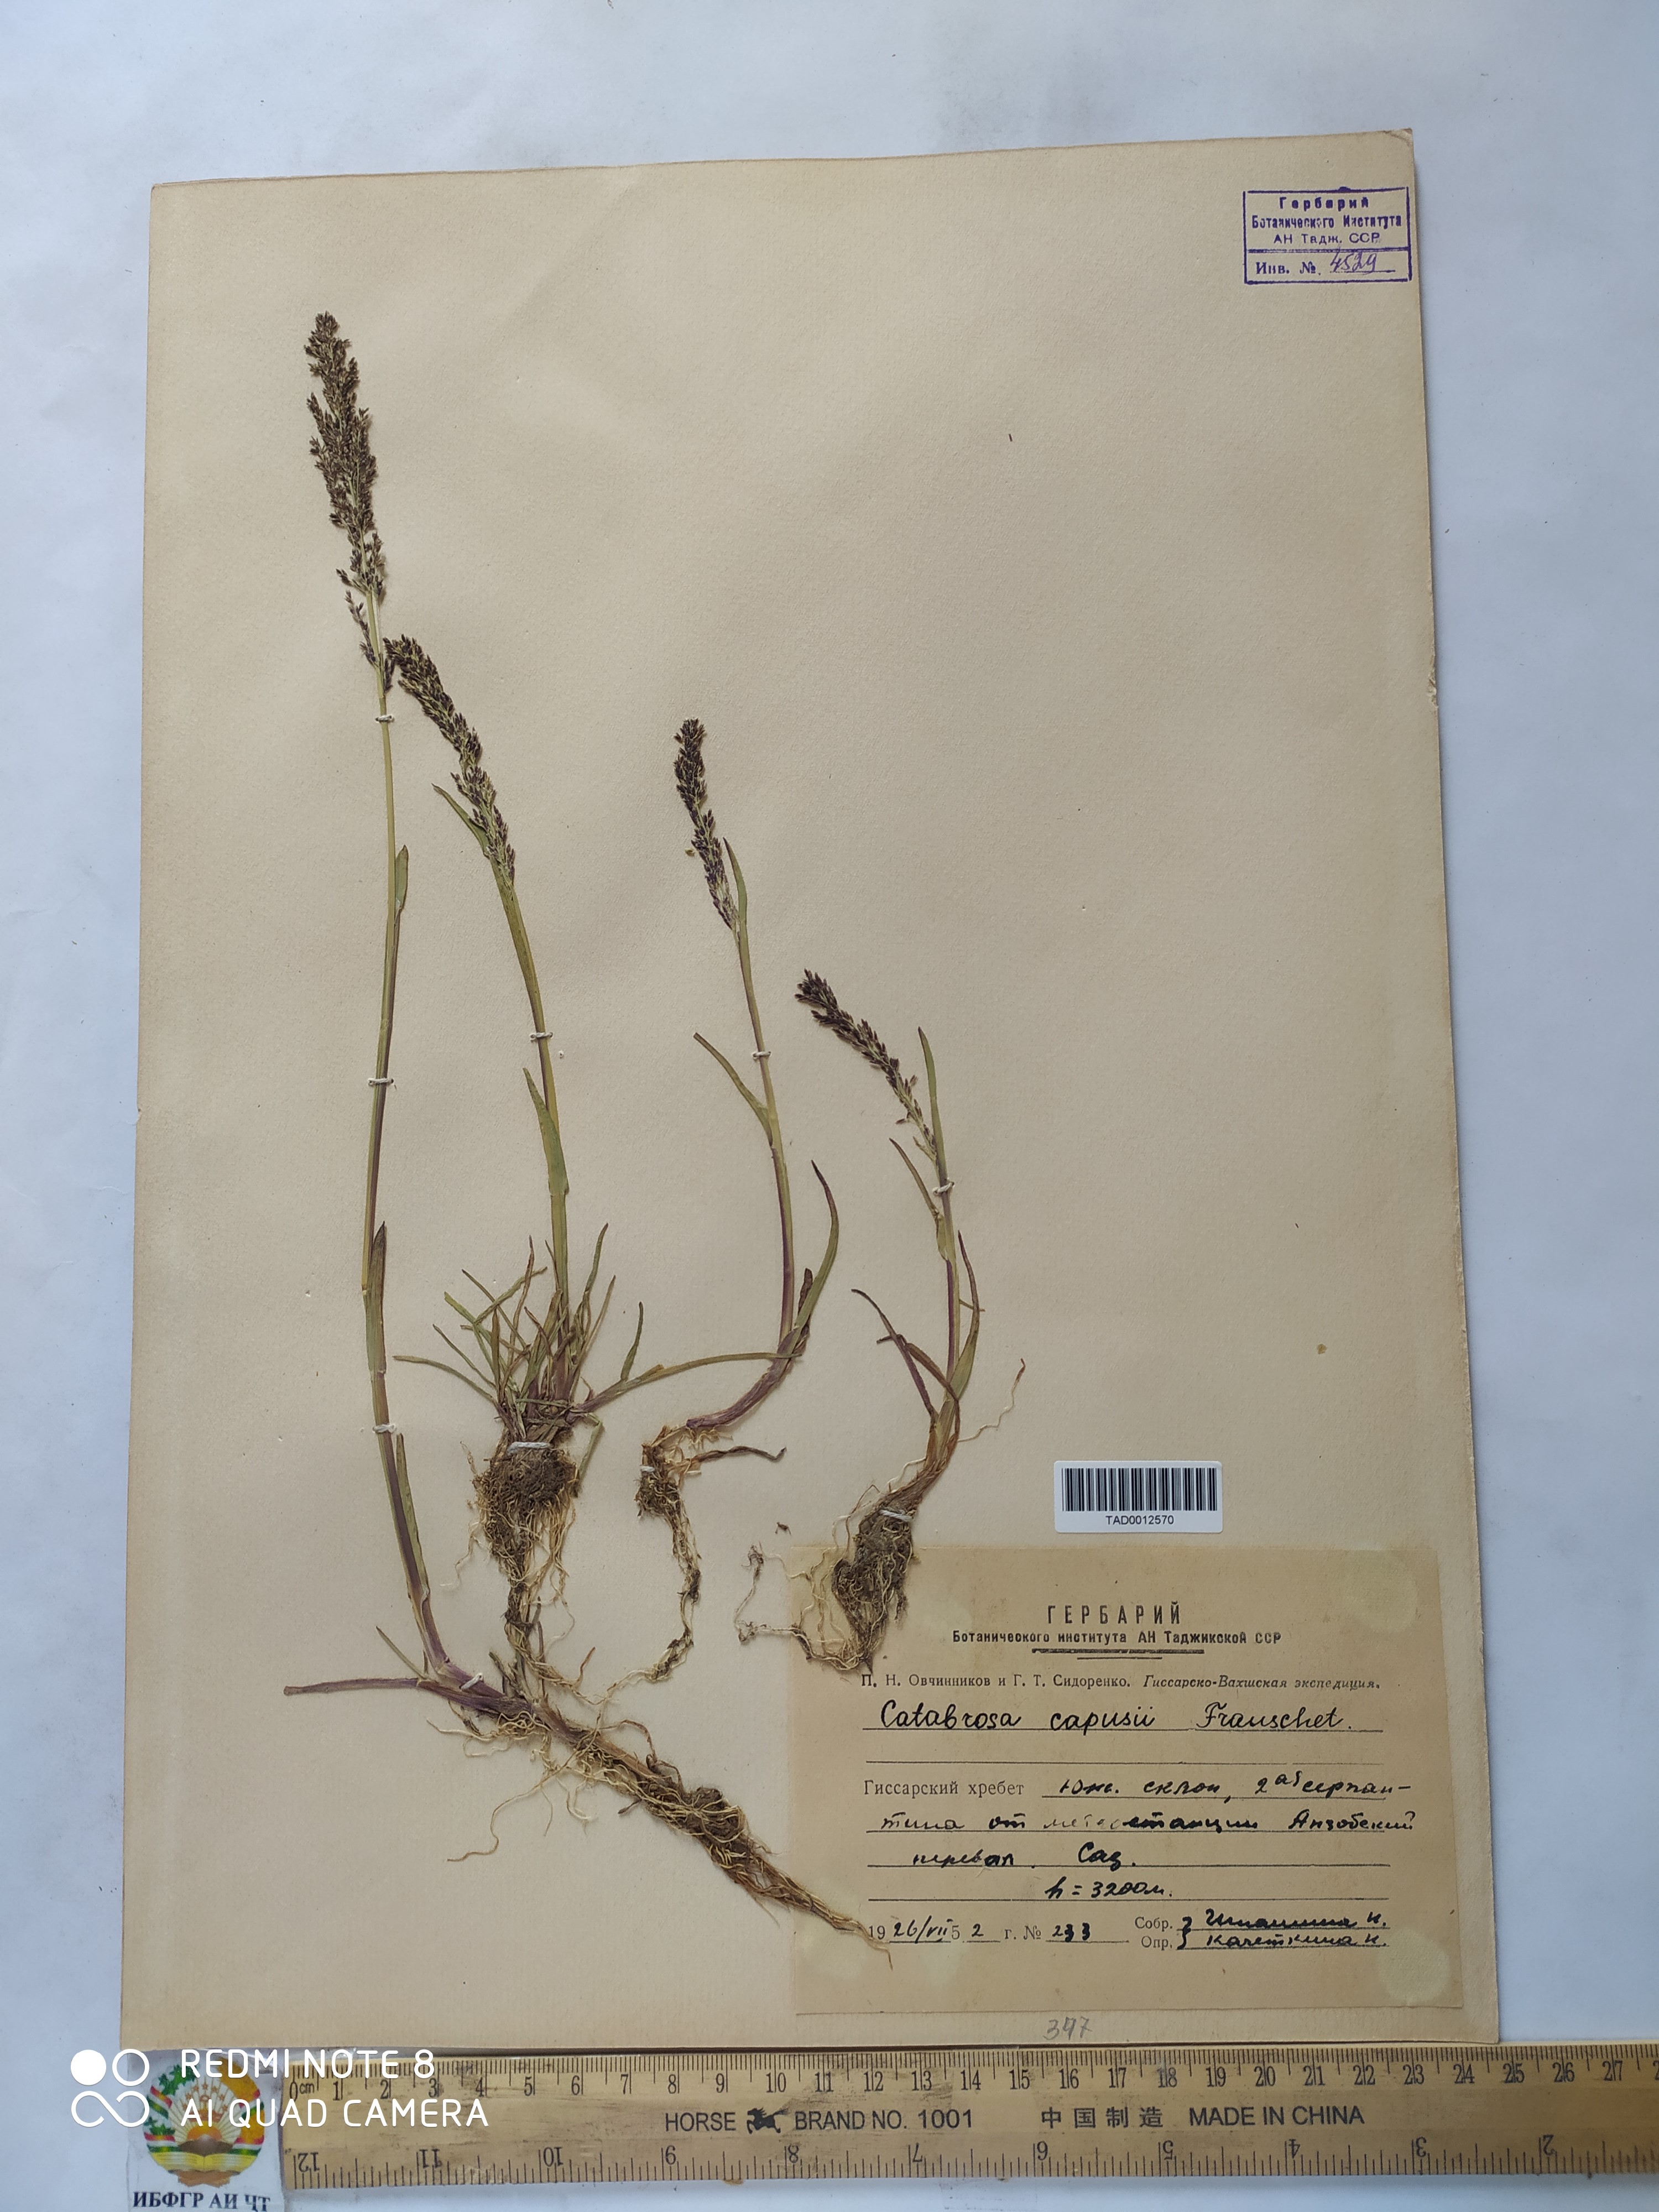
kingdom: Plantae
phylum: Tracheophyta
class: Liliopsida
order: Poales
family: Poaceae
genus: Catabrosa
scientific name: Catabrosa aquatica
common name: Whorl-grass
